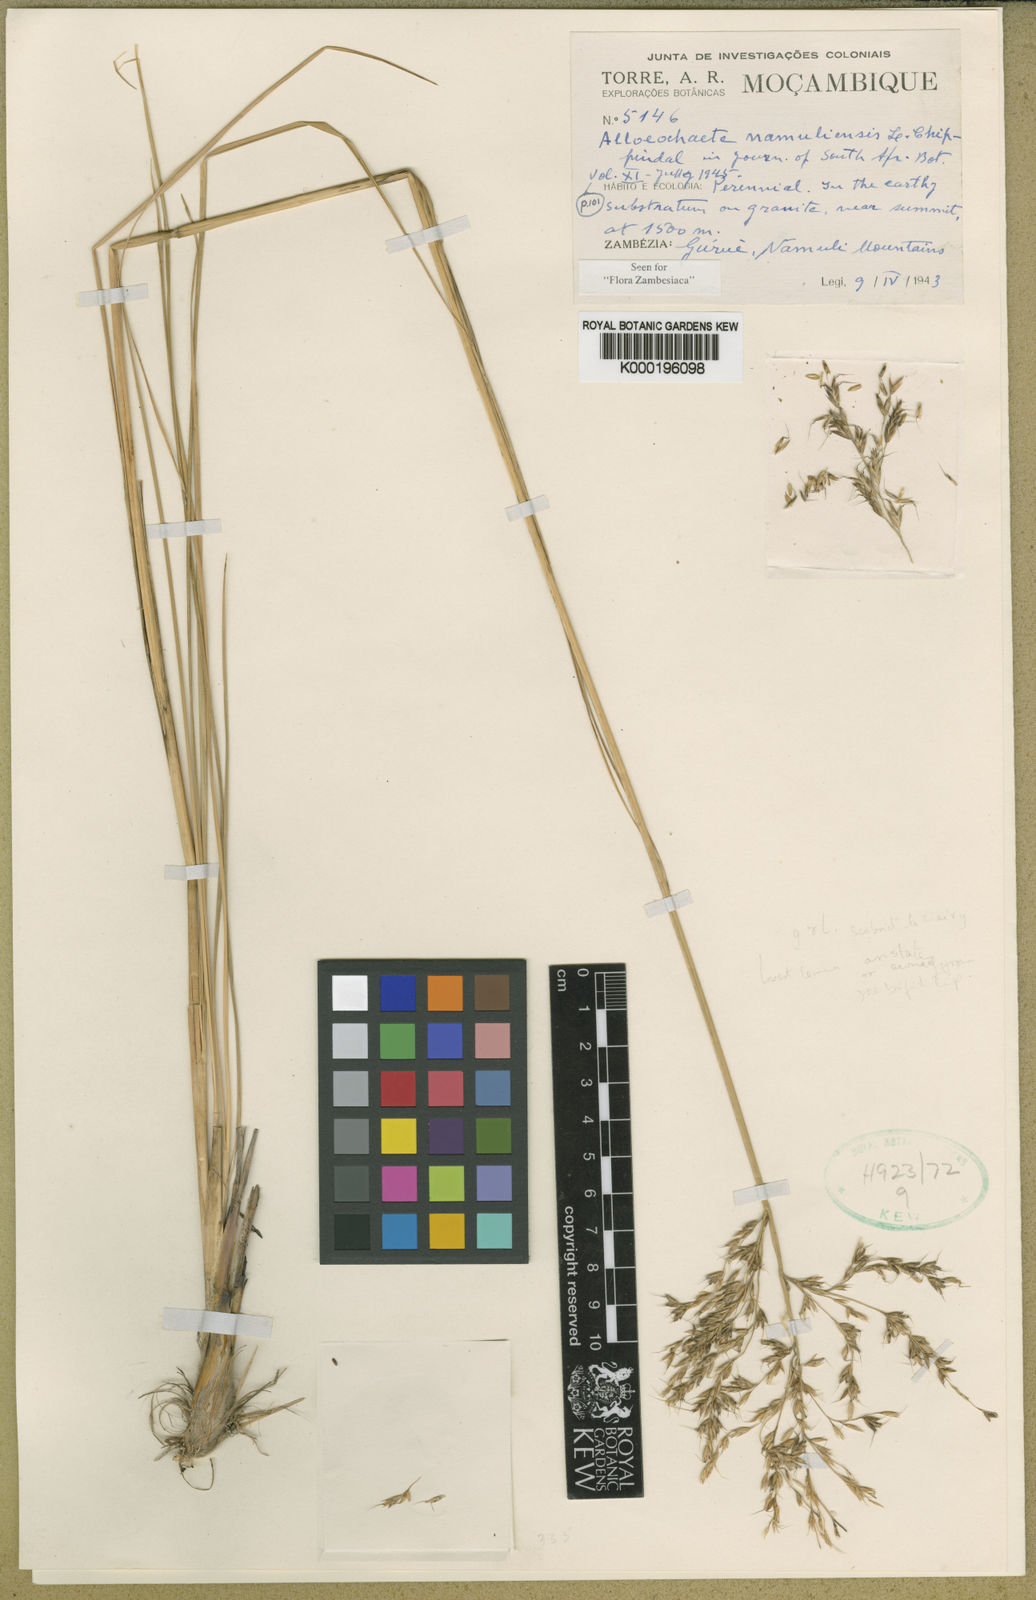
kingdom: Plantae
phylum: Tracheophyta
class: Liliopsida
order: Poales
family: Poaceae
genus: Alloeochaete
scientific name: Alloeochaete namuliensis
